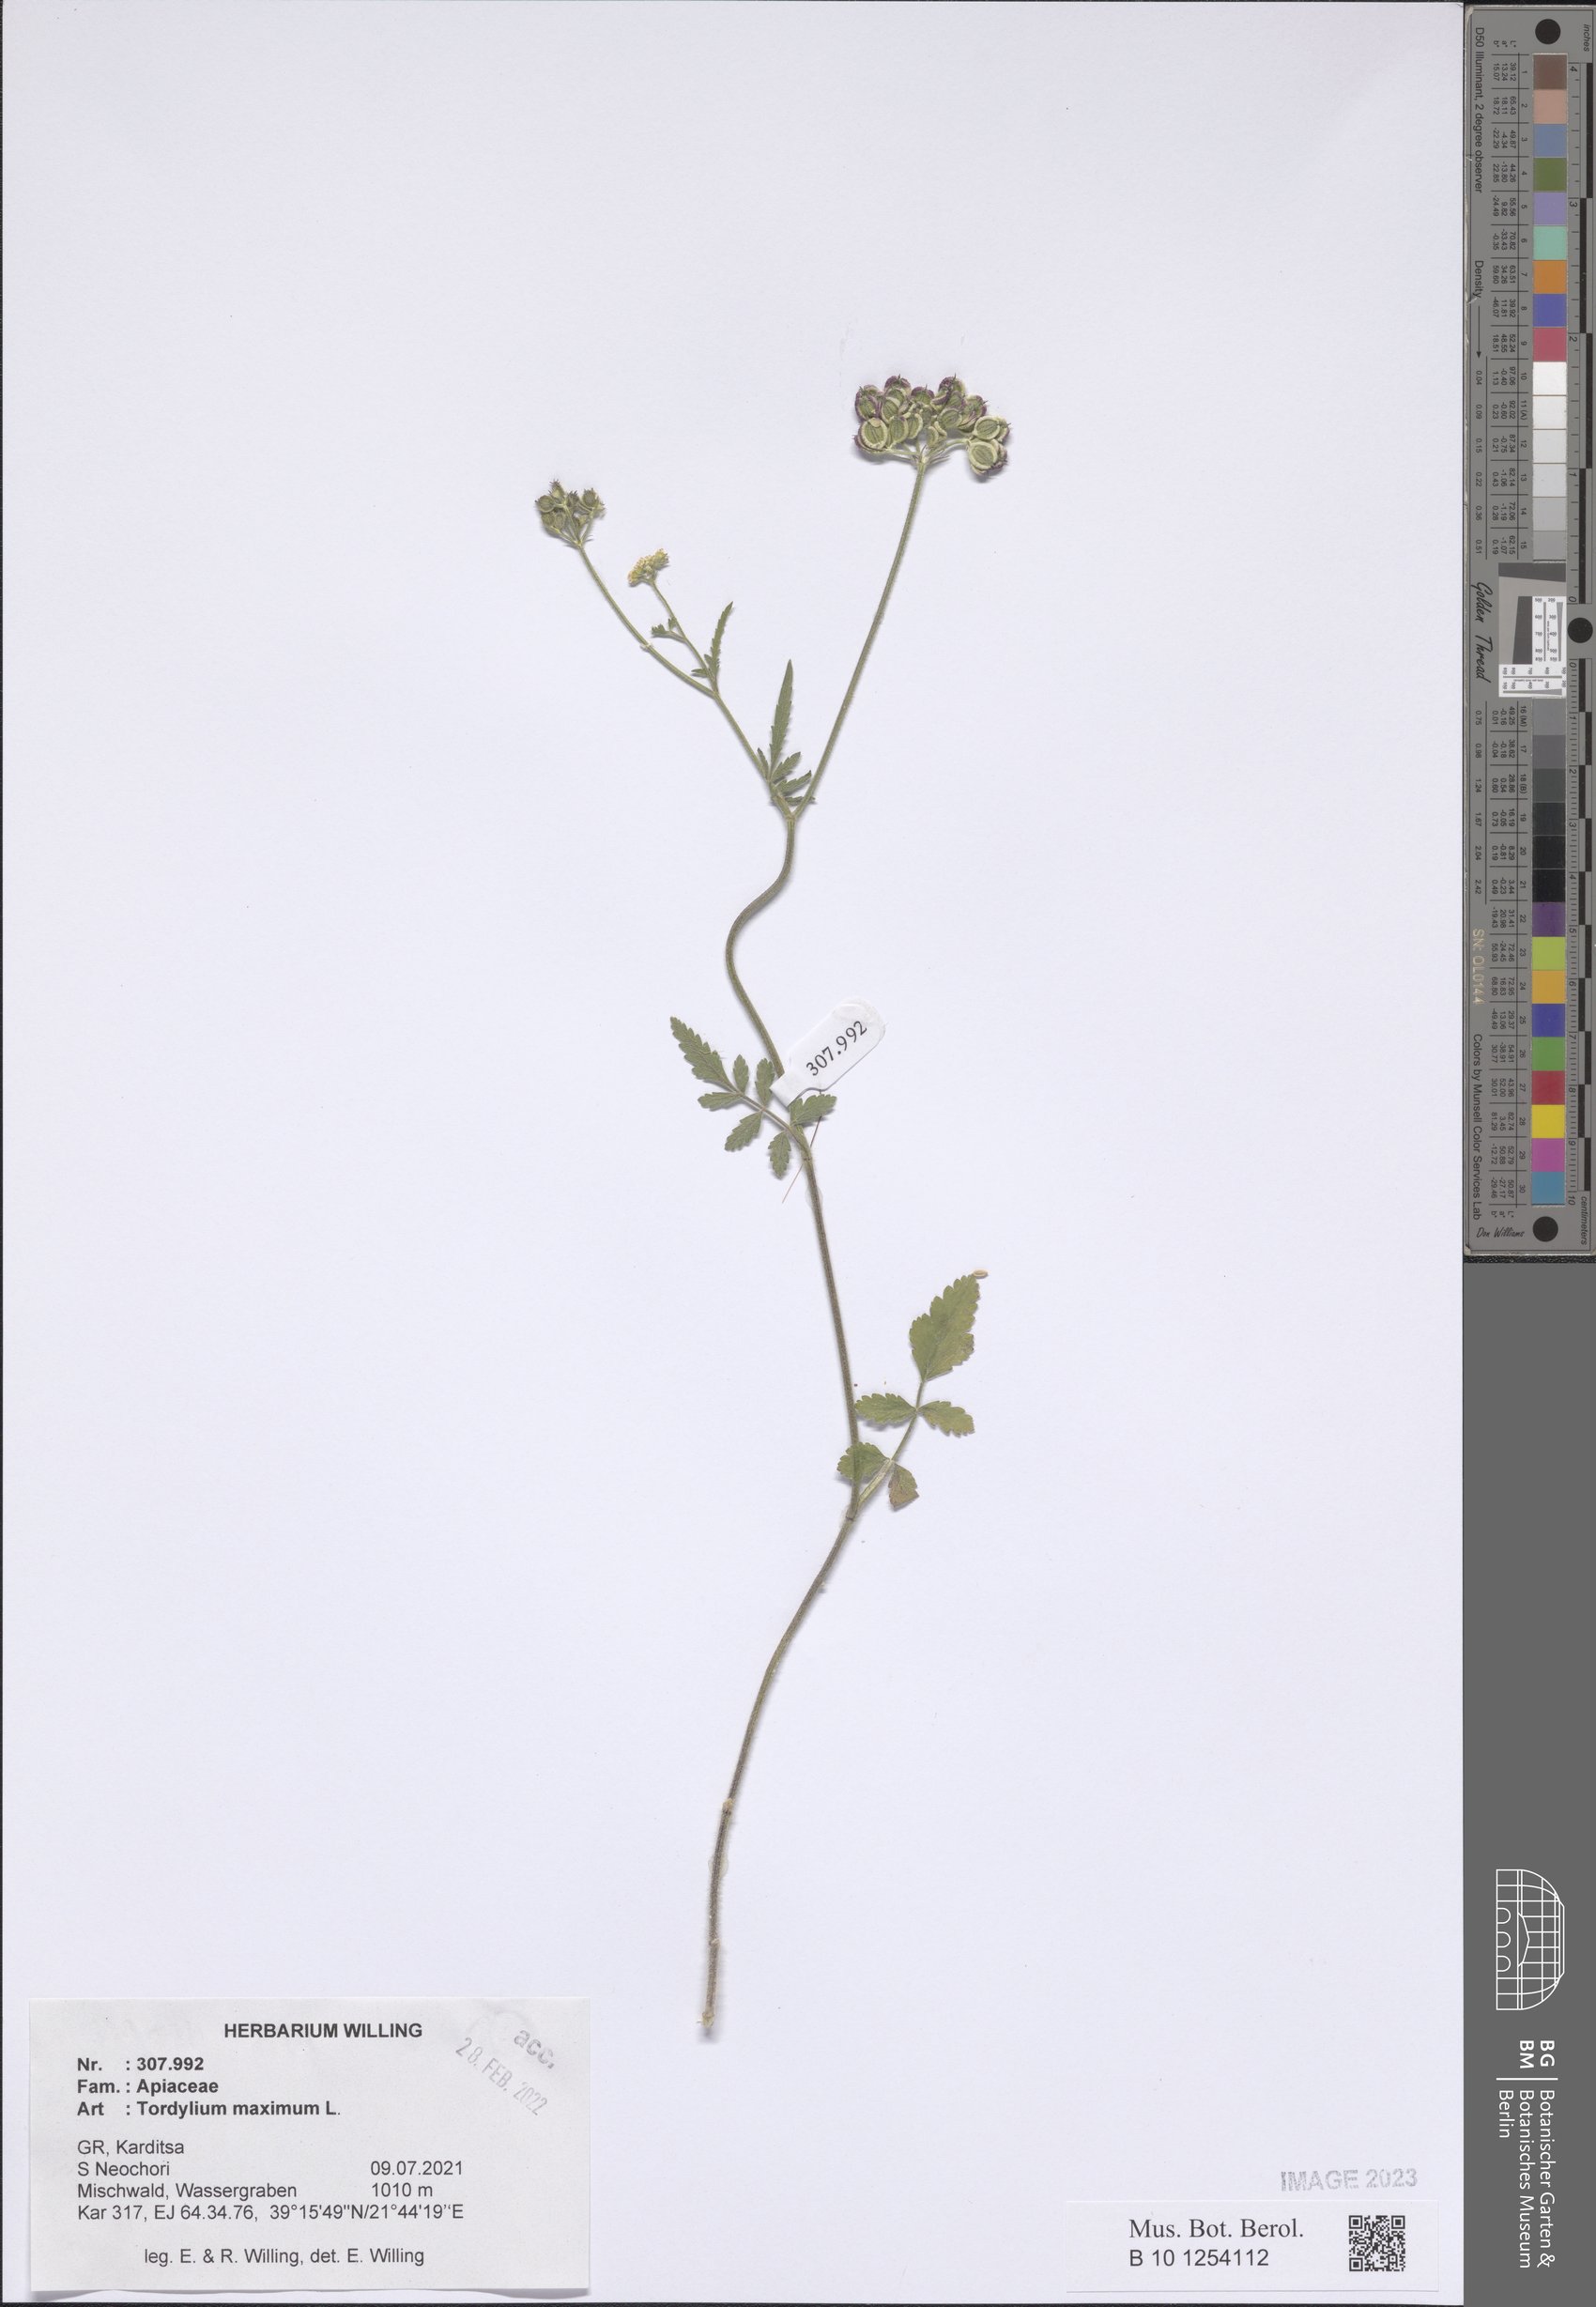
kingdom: Plantae
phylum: Tracheophyta
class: Magnoliopsida
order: Apiales
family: Apiaceae
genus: Tordylium
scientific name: Tordylium maximum
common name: Hartwort
